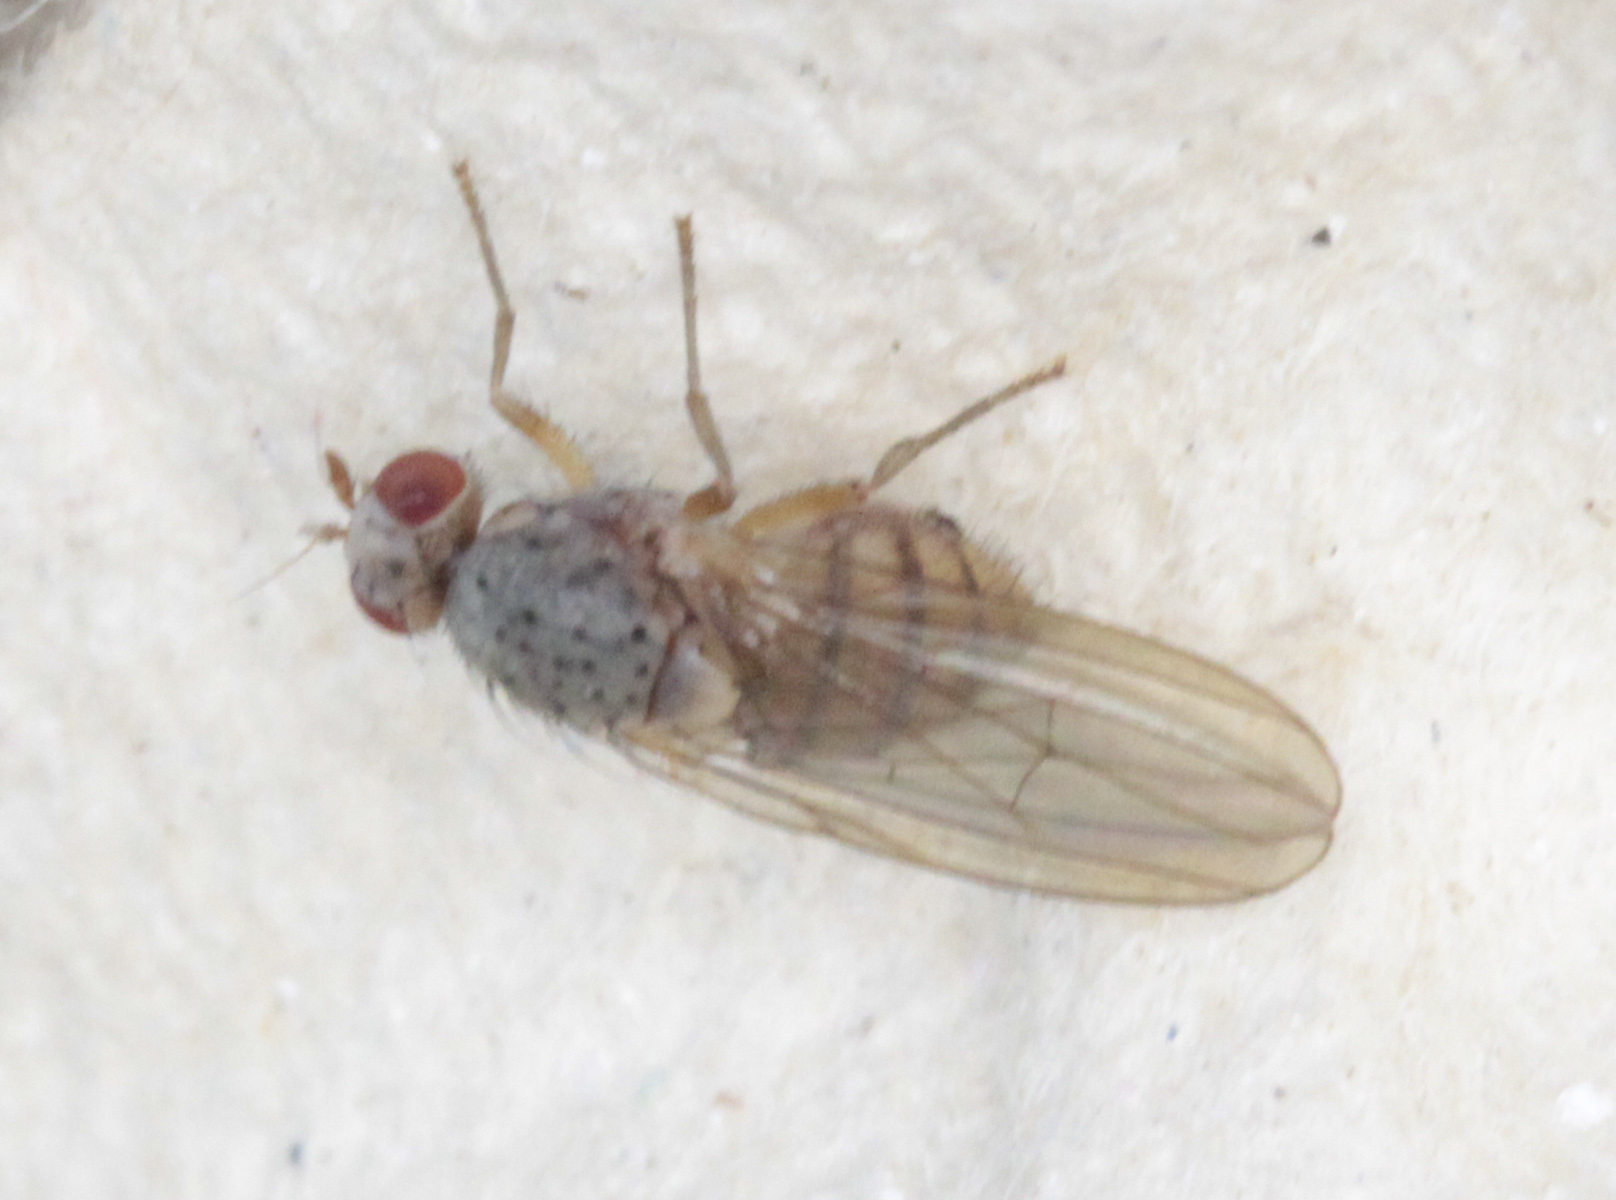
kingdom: Animalia
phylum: Arthropoda
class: Insecta
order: Diptera
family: Lauxaniidae
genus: Pseudolyciella
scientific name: Pseudolyciella
